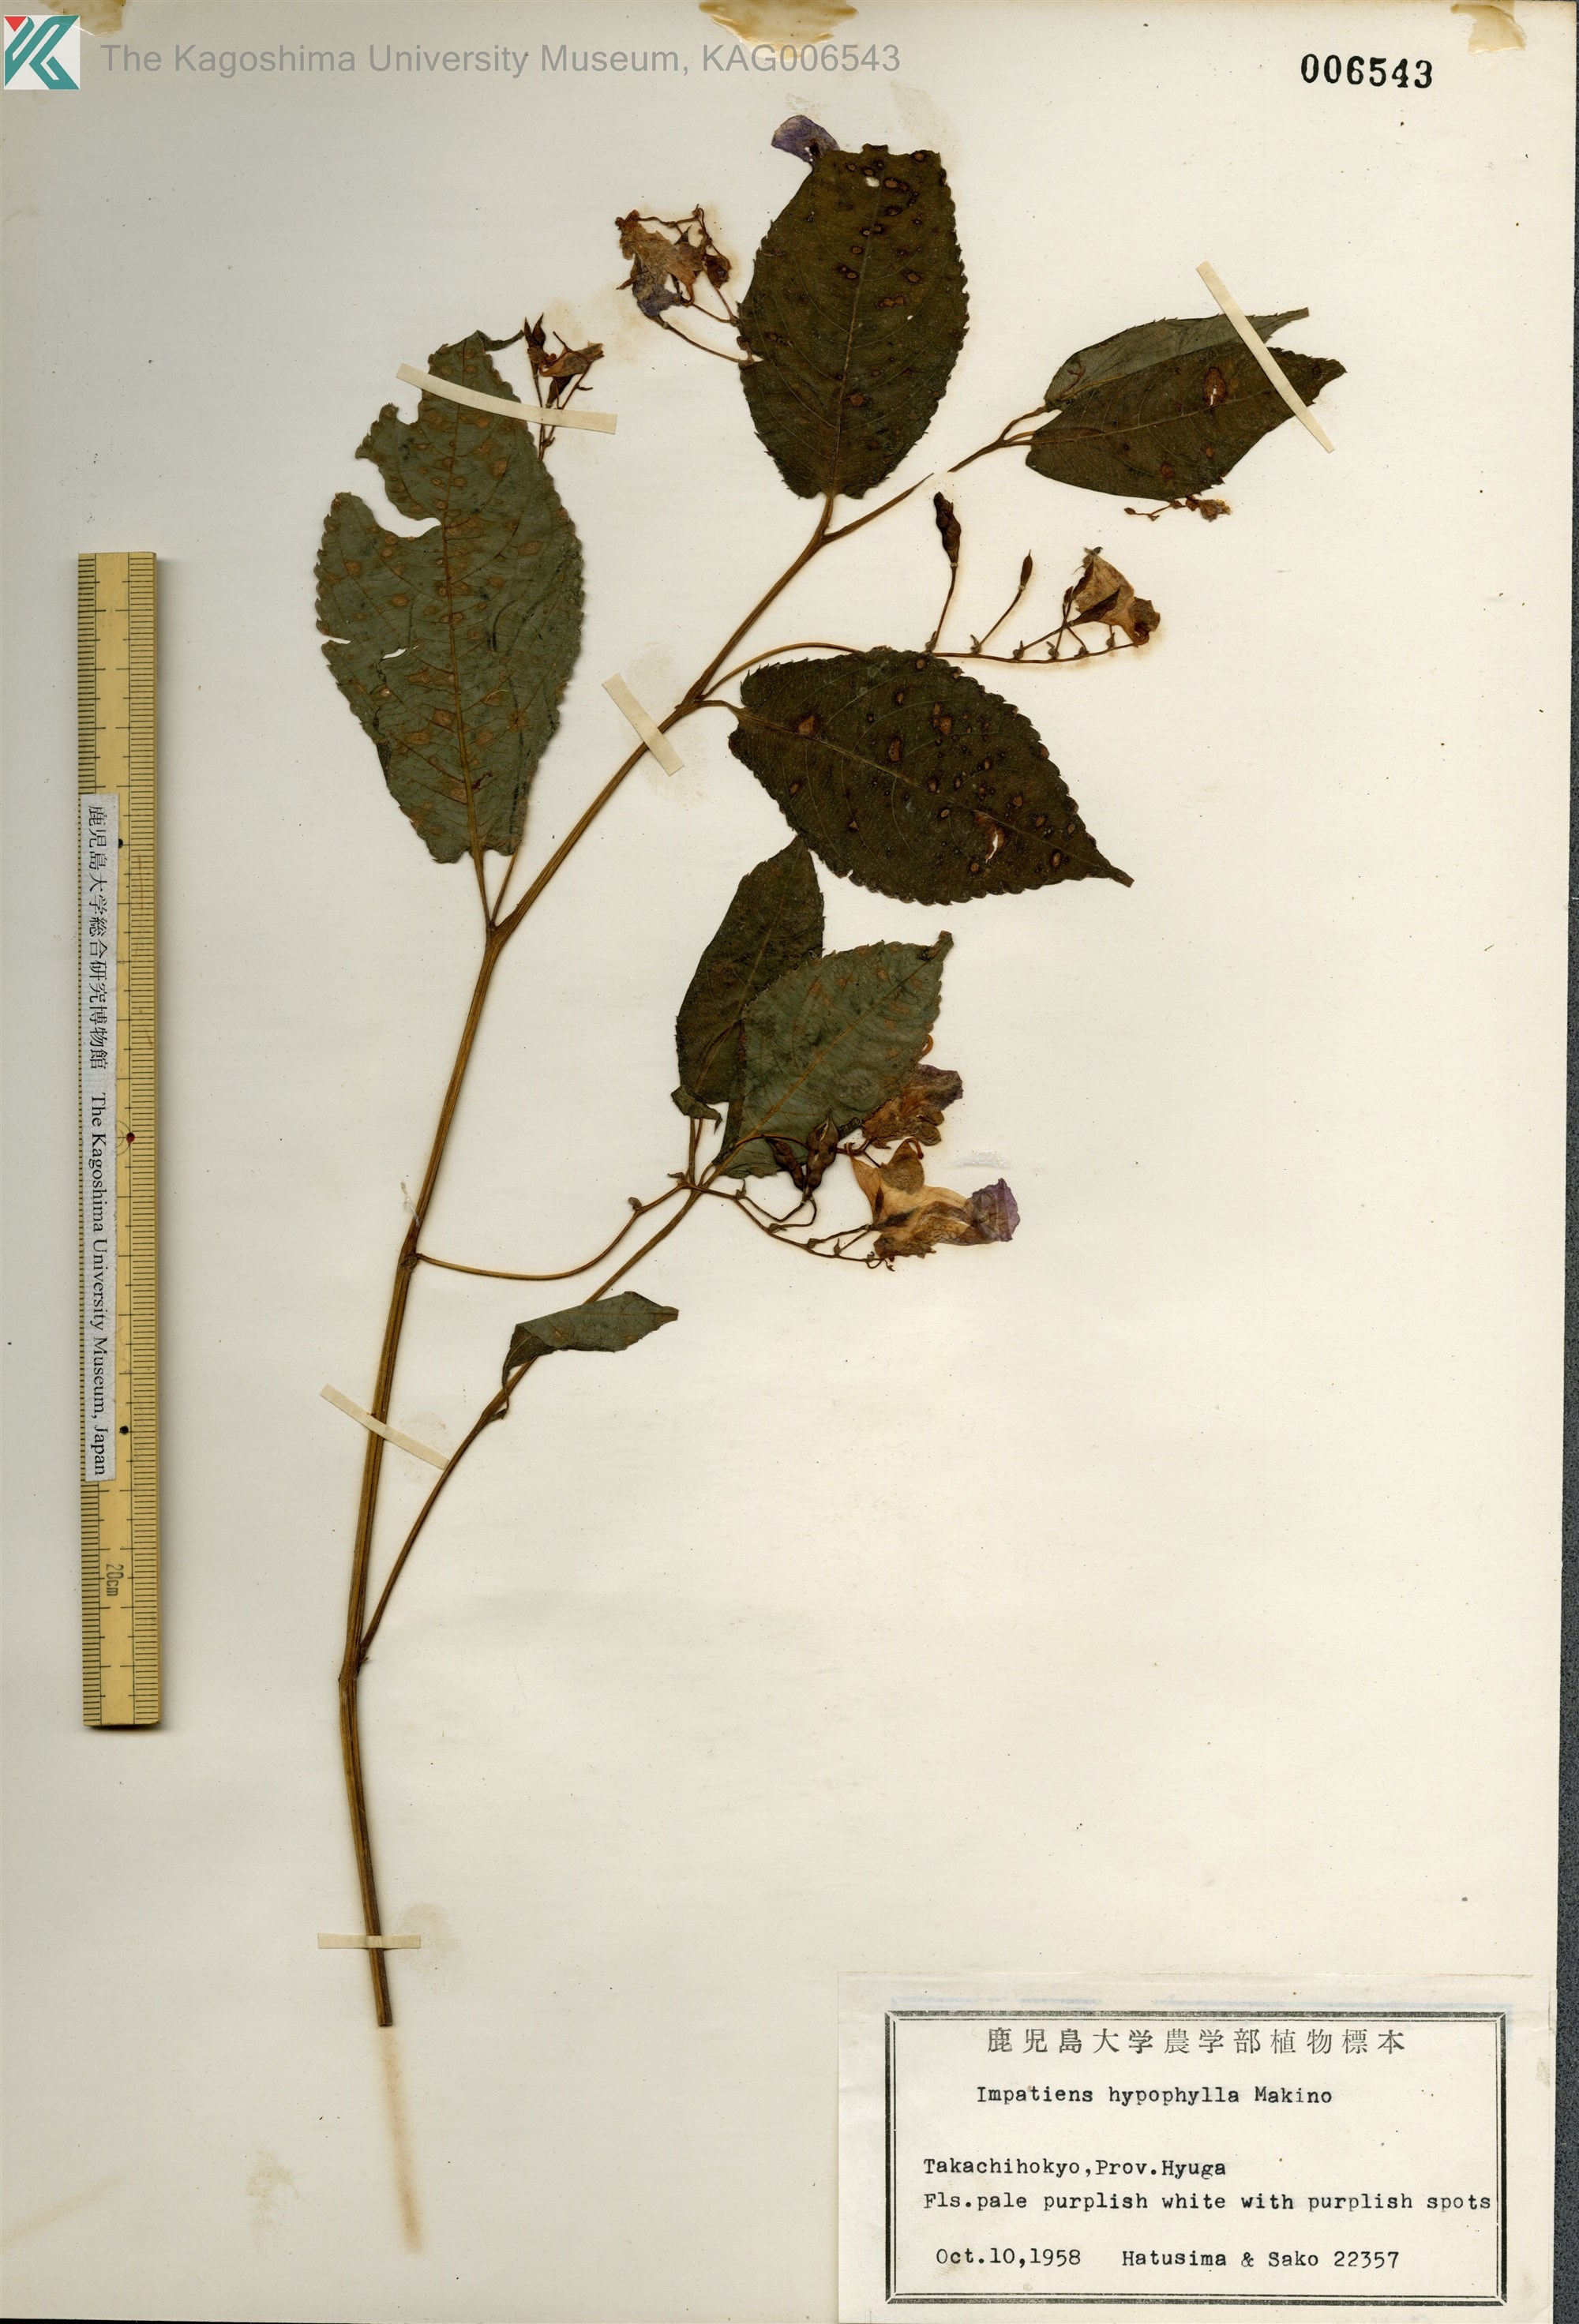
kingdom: Plantae
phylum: Tracheophyta
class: Magnoliopsida
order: Ericales
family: Balsaminaceae
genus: Impatiens
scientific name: Impatiens hypophylla
